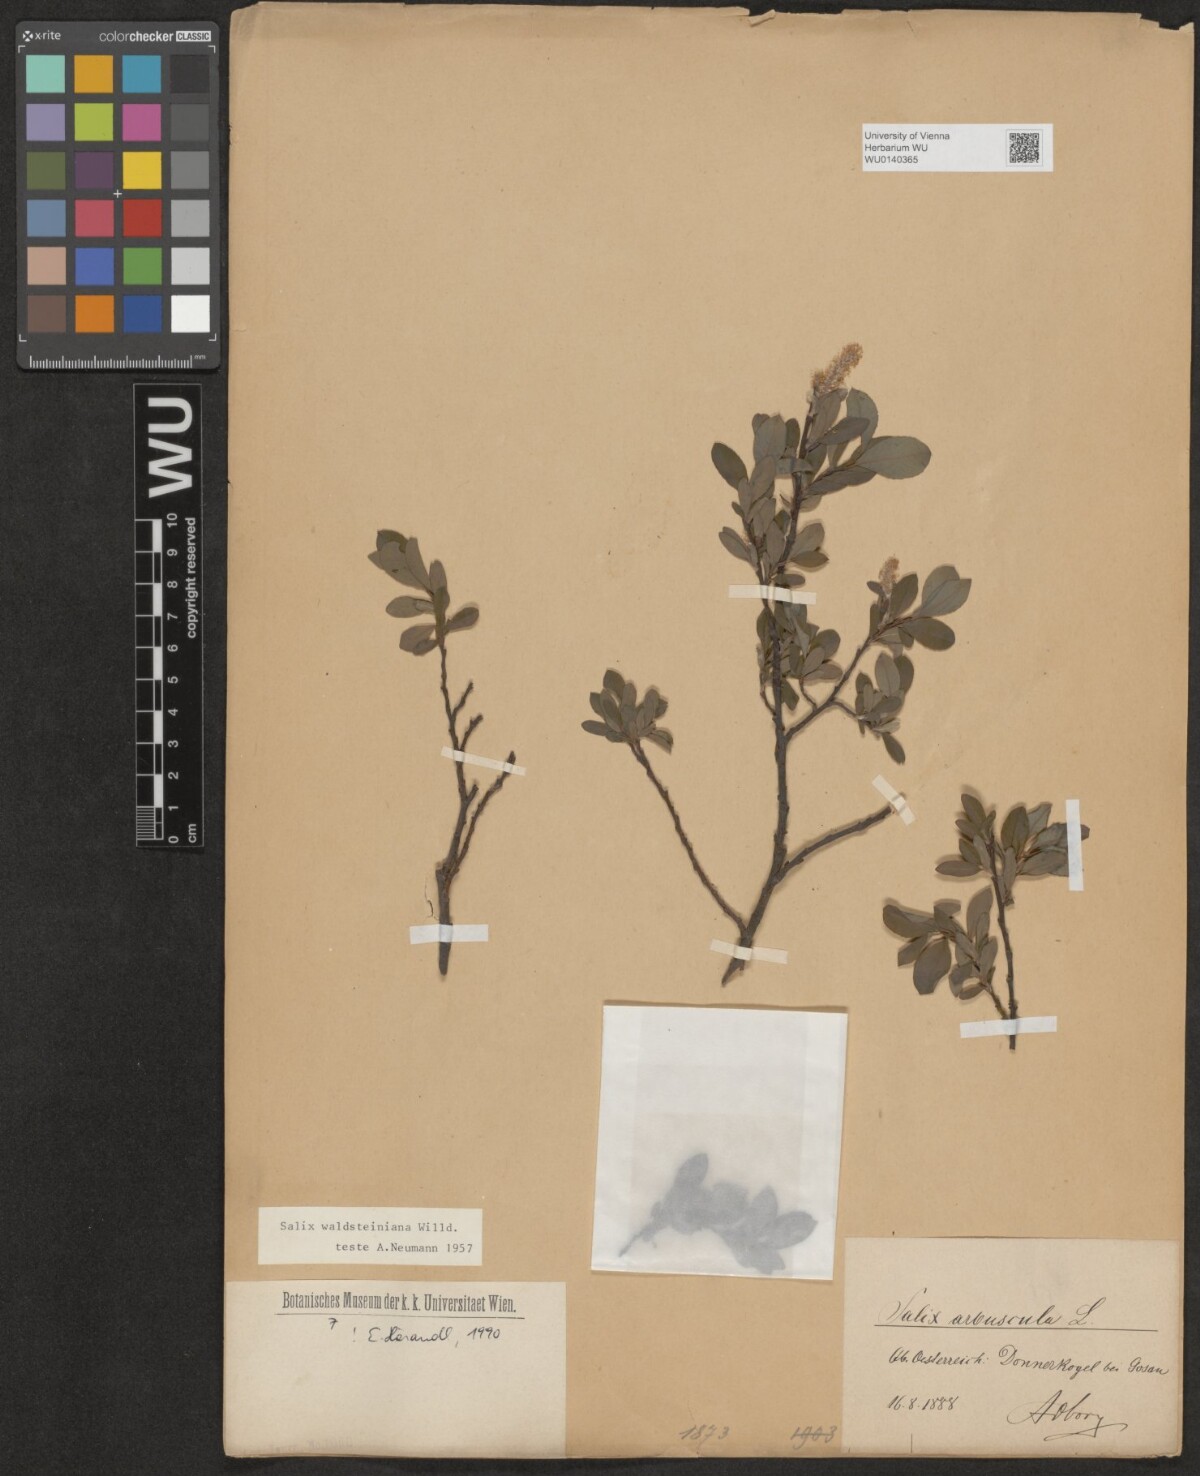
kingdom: Plantae
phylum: Tracheophyta
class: Magnoliopsida
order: Malpighiales
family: Salicaceae
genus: Salix
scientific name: Salix waldsteiniana
